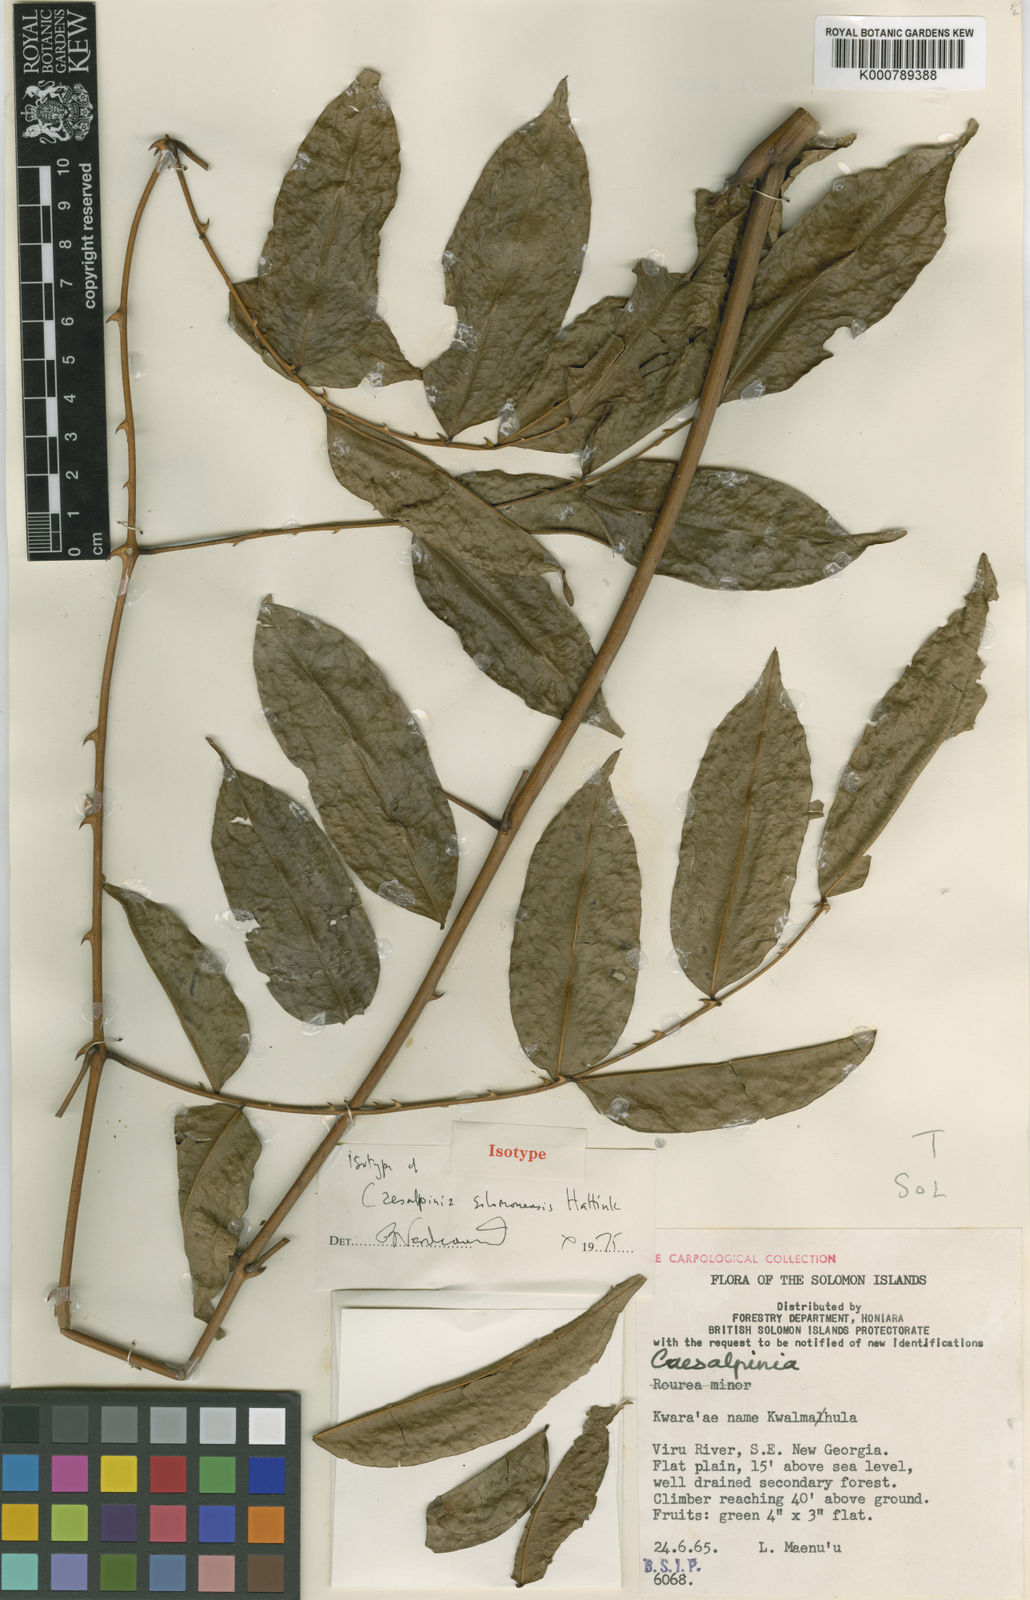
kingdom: Plantae
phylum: Tracheophyta
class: Magnoliopsida
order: Fabales
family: Fabaceae
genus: Guilandina
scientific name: Guilandina
